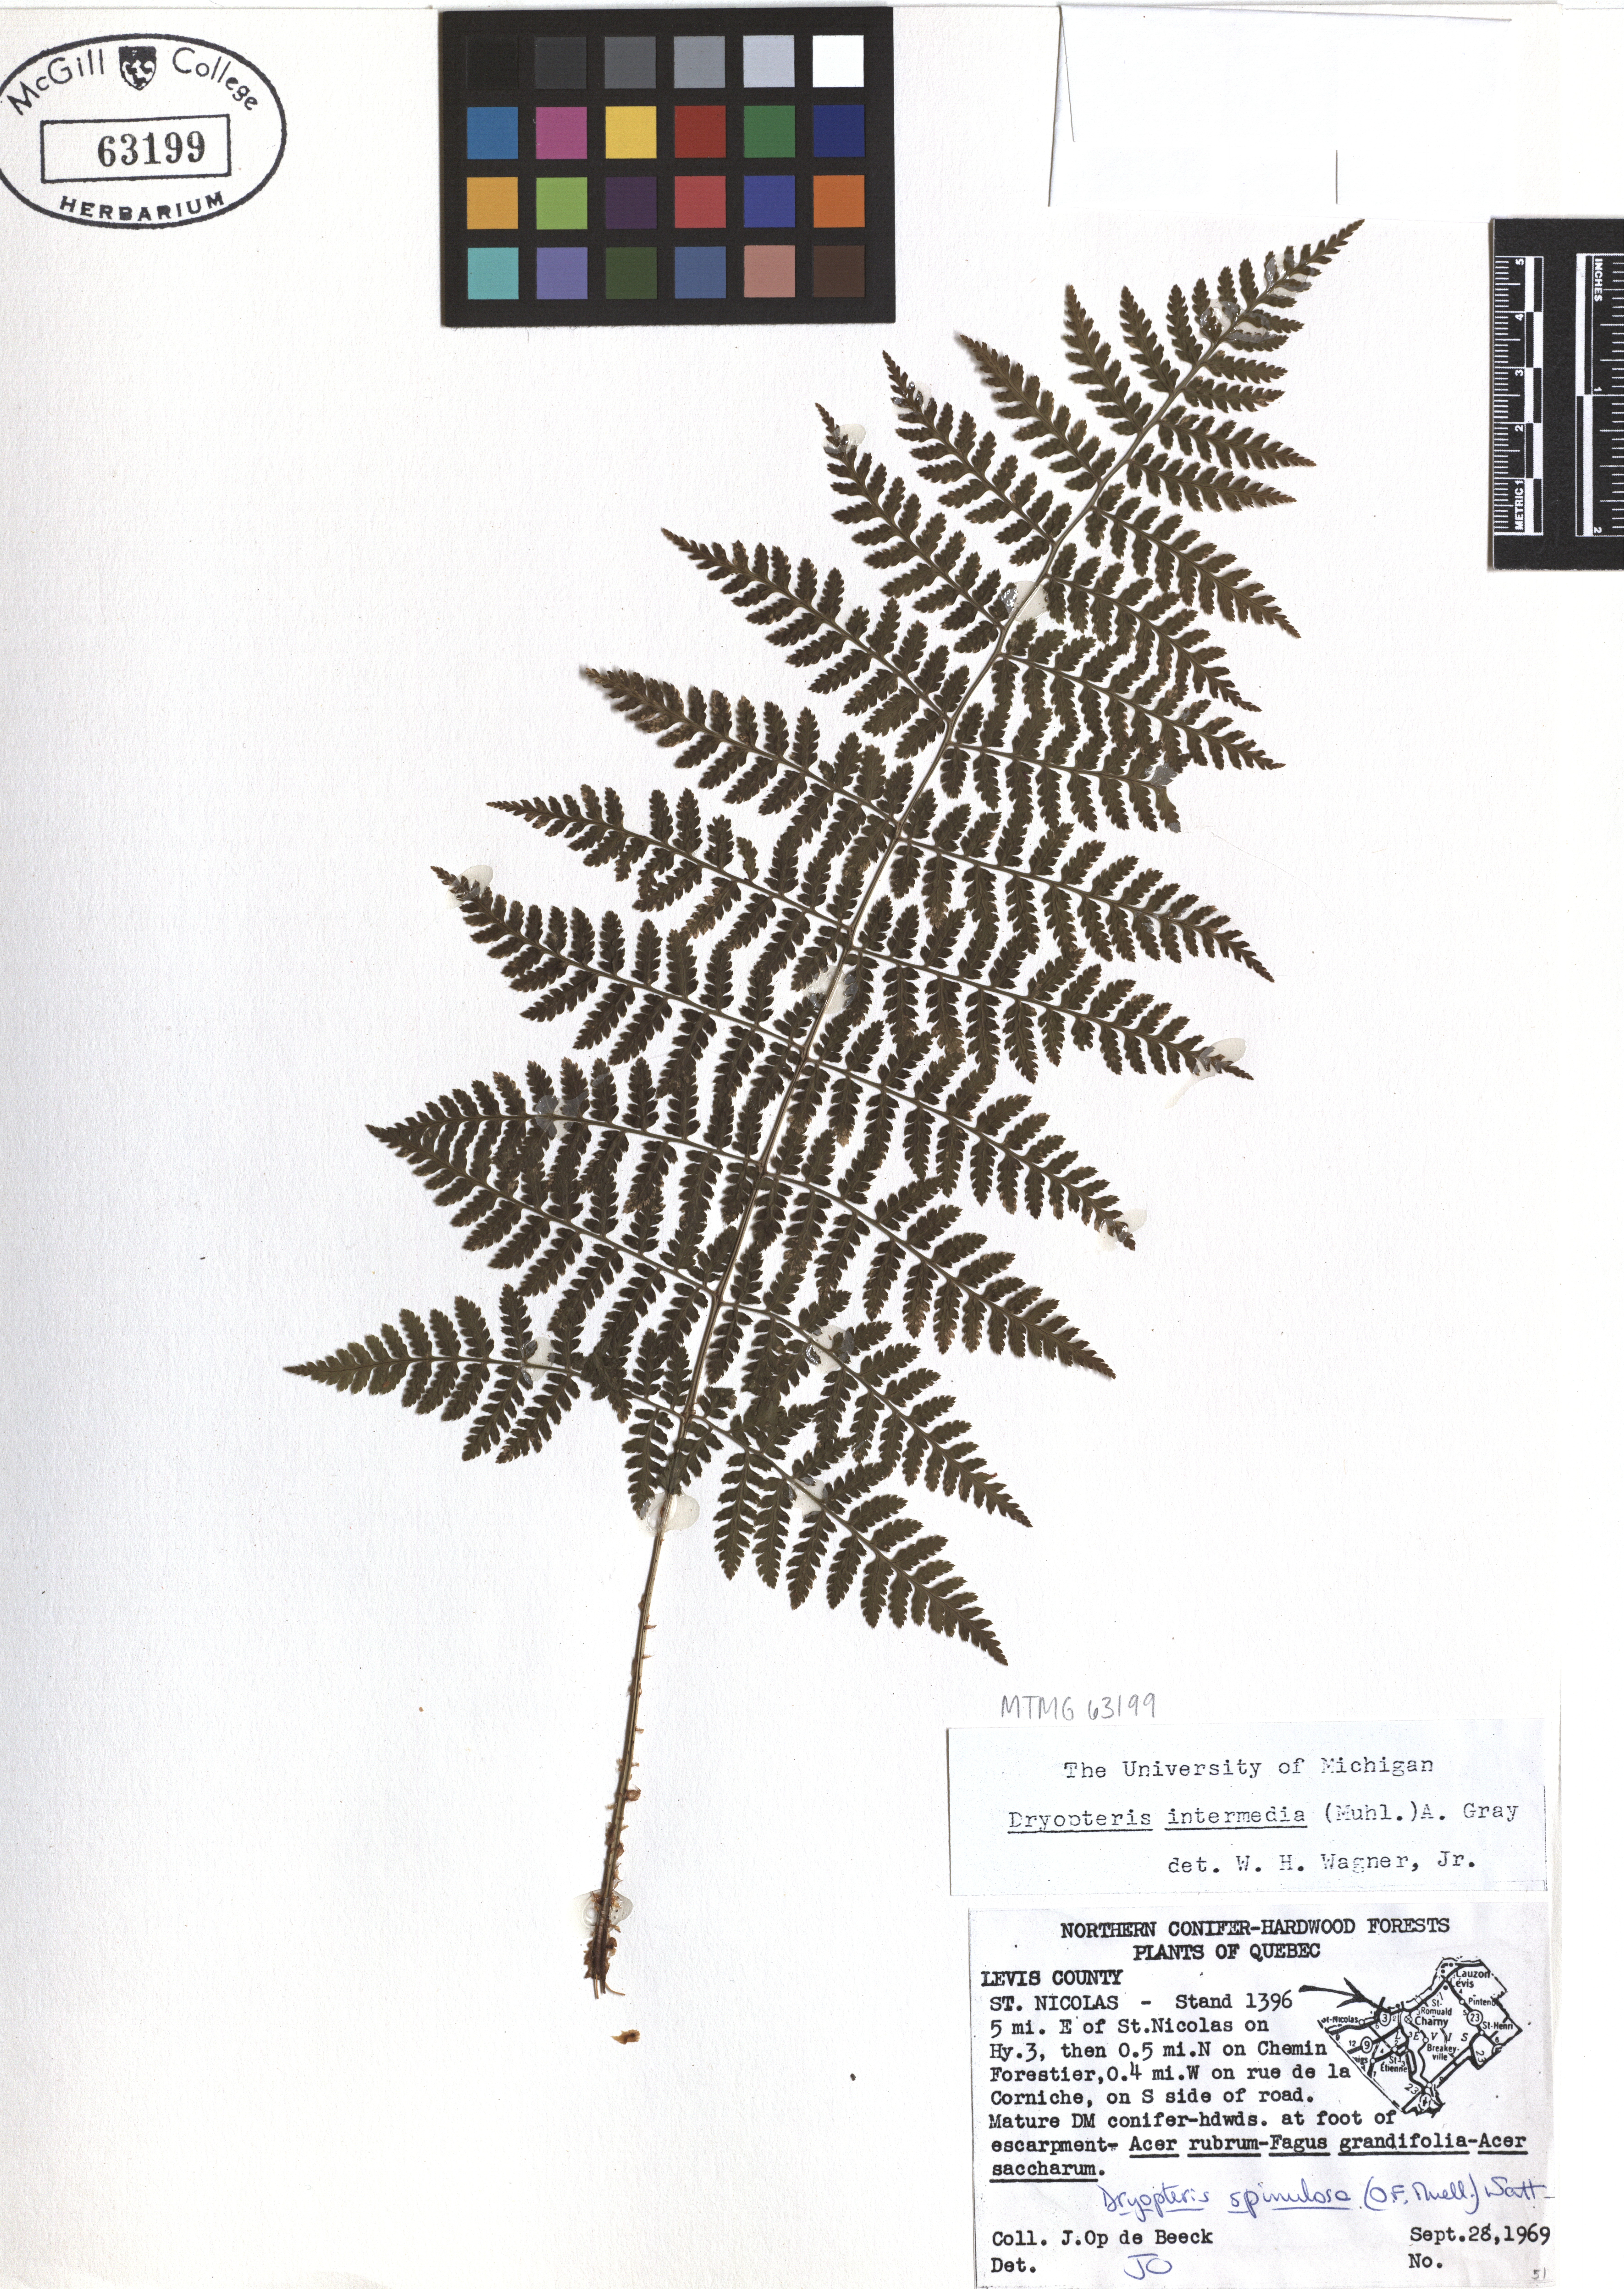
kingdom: Plantae
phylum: Tracheophyta
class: Polypodiopsida
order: Polypodiales
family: Dryopteridaceae
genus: Dryopteris
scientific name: Dryopteris intermedia
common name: Evergreen wood fern
